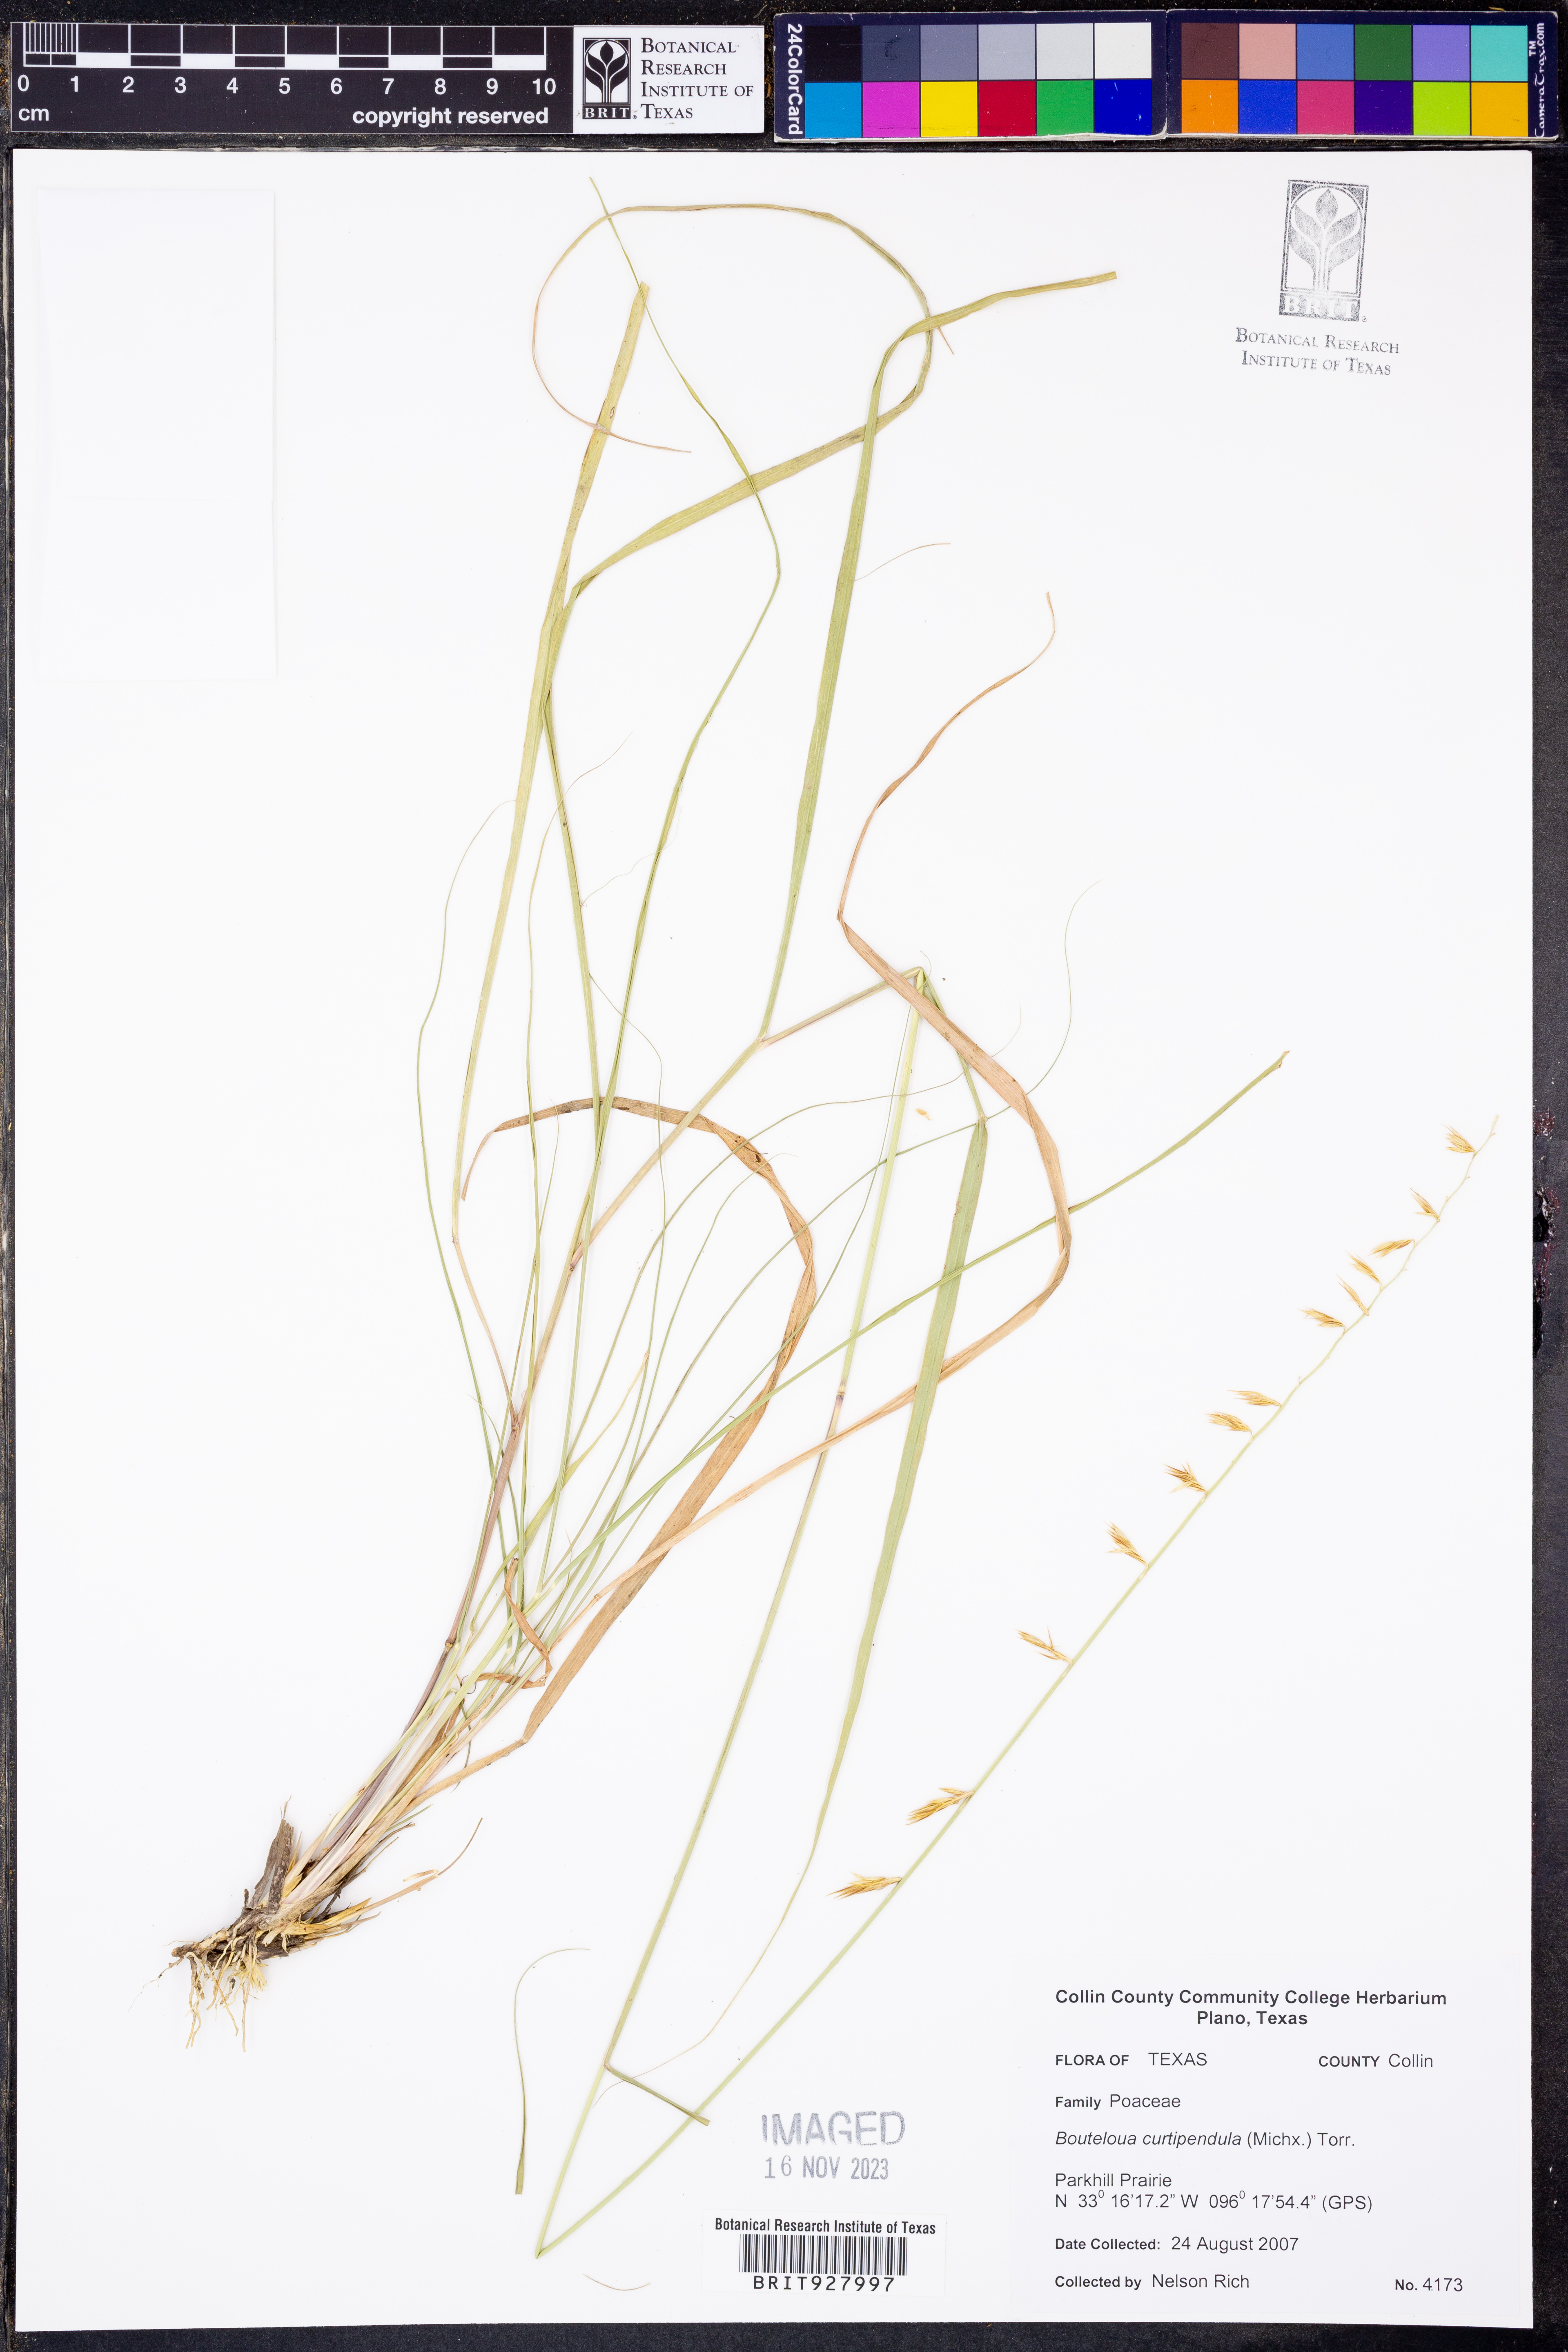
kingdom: Plantae
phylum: Tracheophyta
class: Liliopsida
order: Poales
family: Poaceae
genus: Bouteloua
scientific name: Bouteloua curtipendula
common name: Side-oats grama
